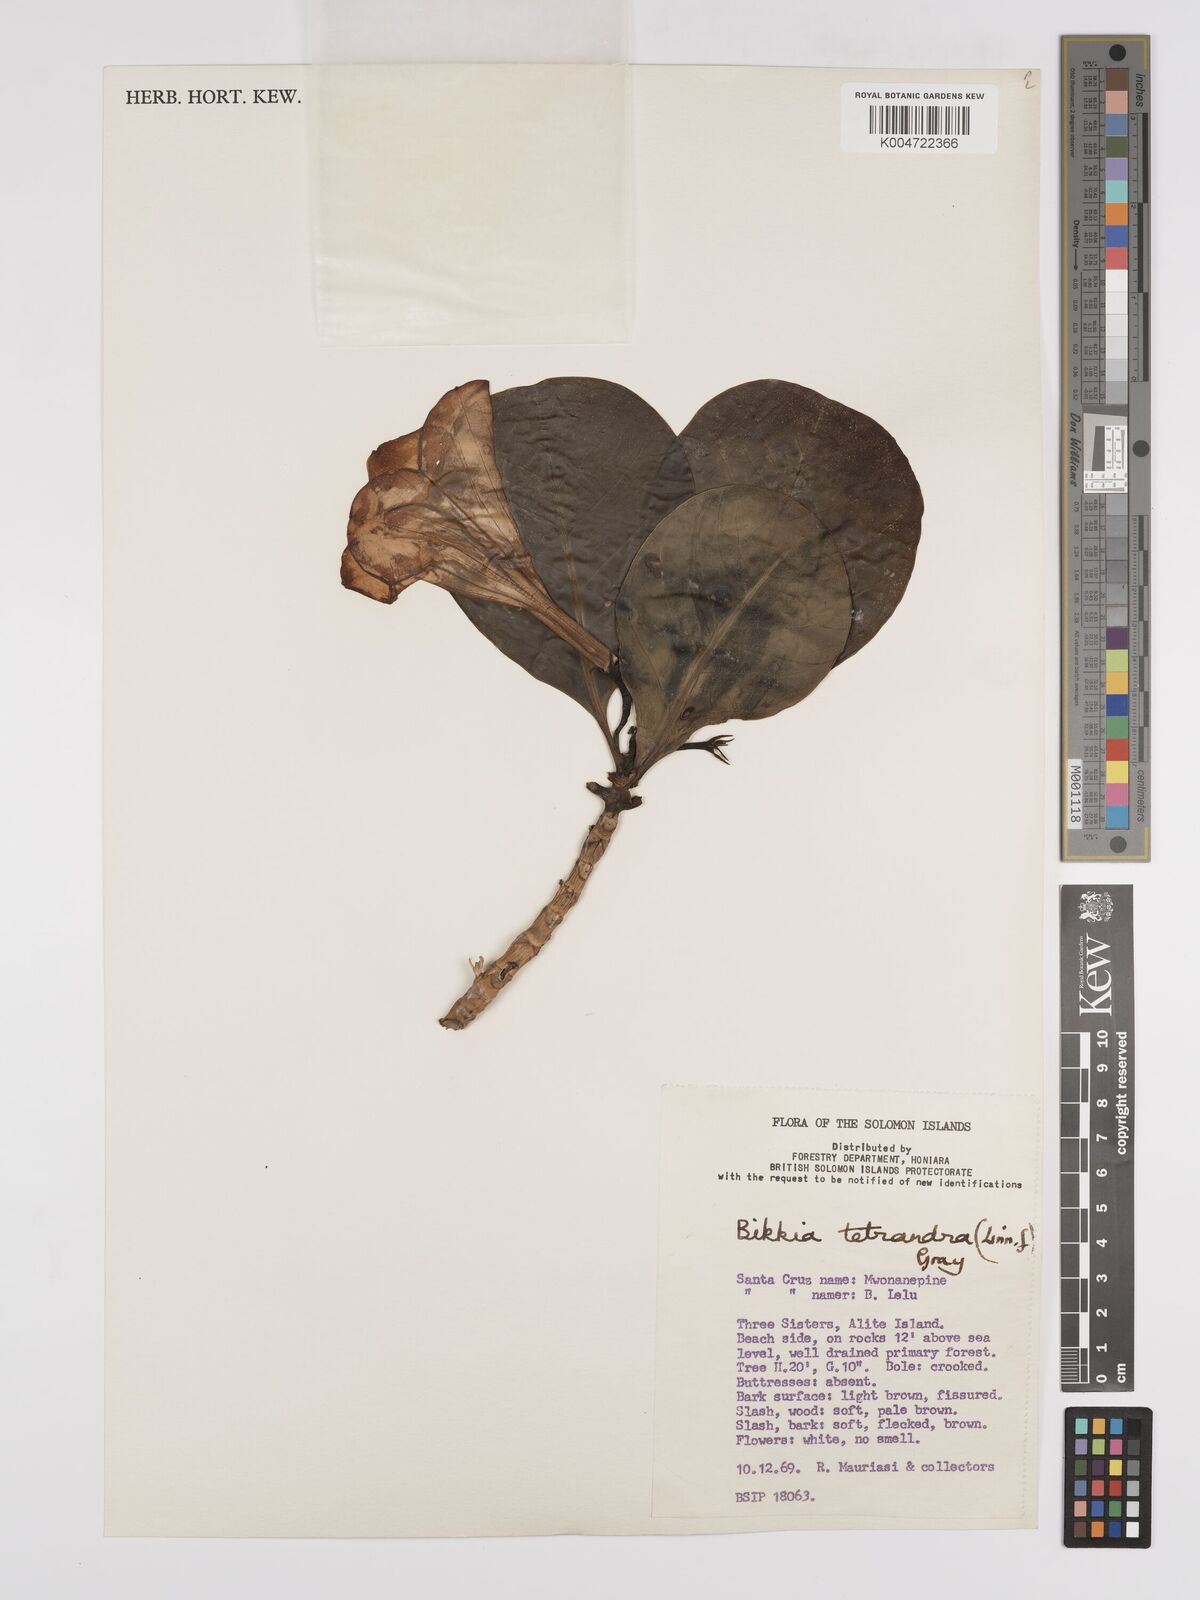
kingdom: Plantae
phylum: Tracheophyta
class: Magnoliopsida
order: Gentianales
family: Rubiaceae
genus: Bikkia
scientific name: Bikkia
